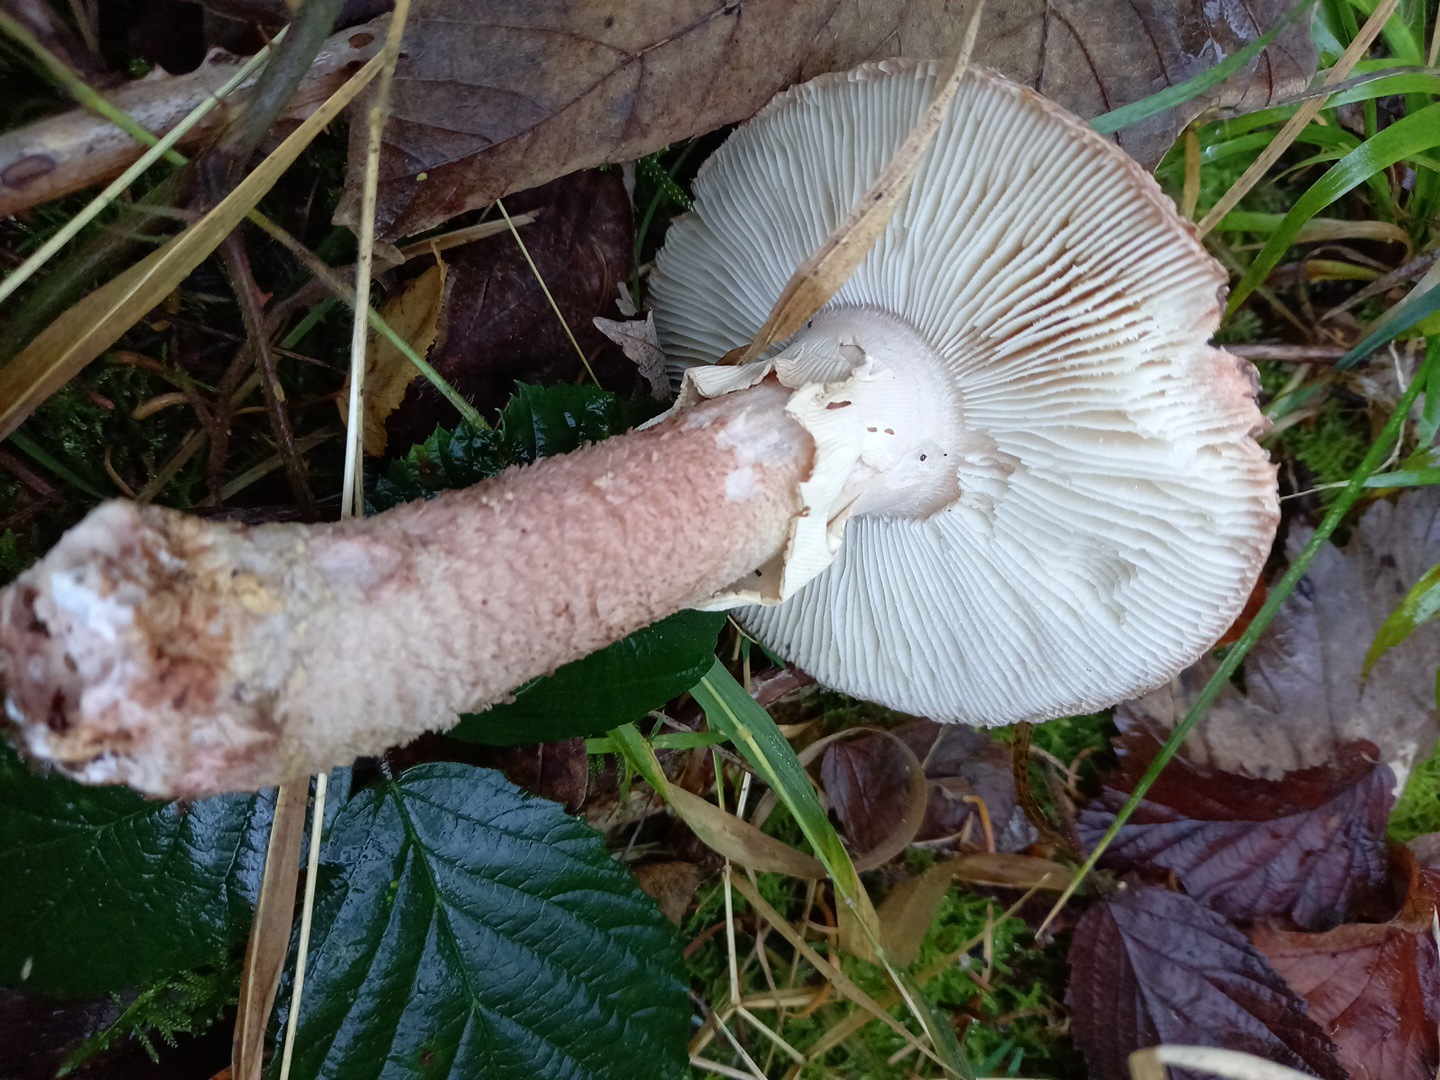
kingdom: Fungi
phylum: Basidiomycota
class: Agaricomycetes
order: Agaricales
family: Amanitaceae
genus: Amanita
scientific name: Amanita rubescens
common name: rødmende fluesvamp
